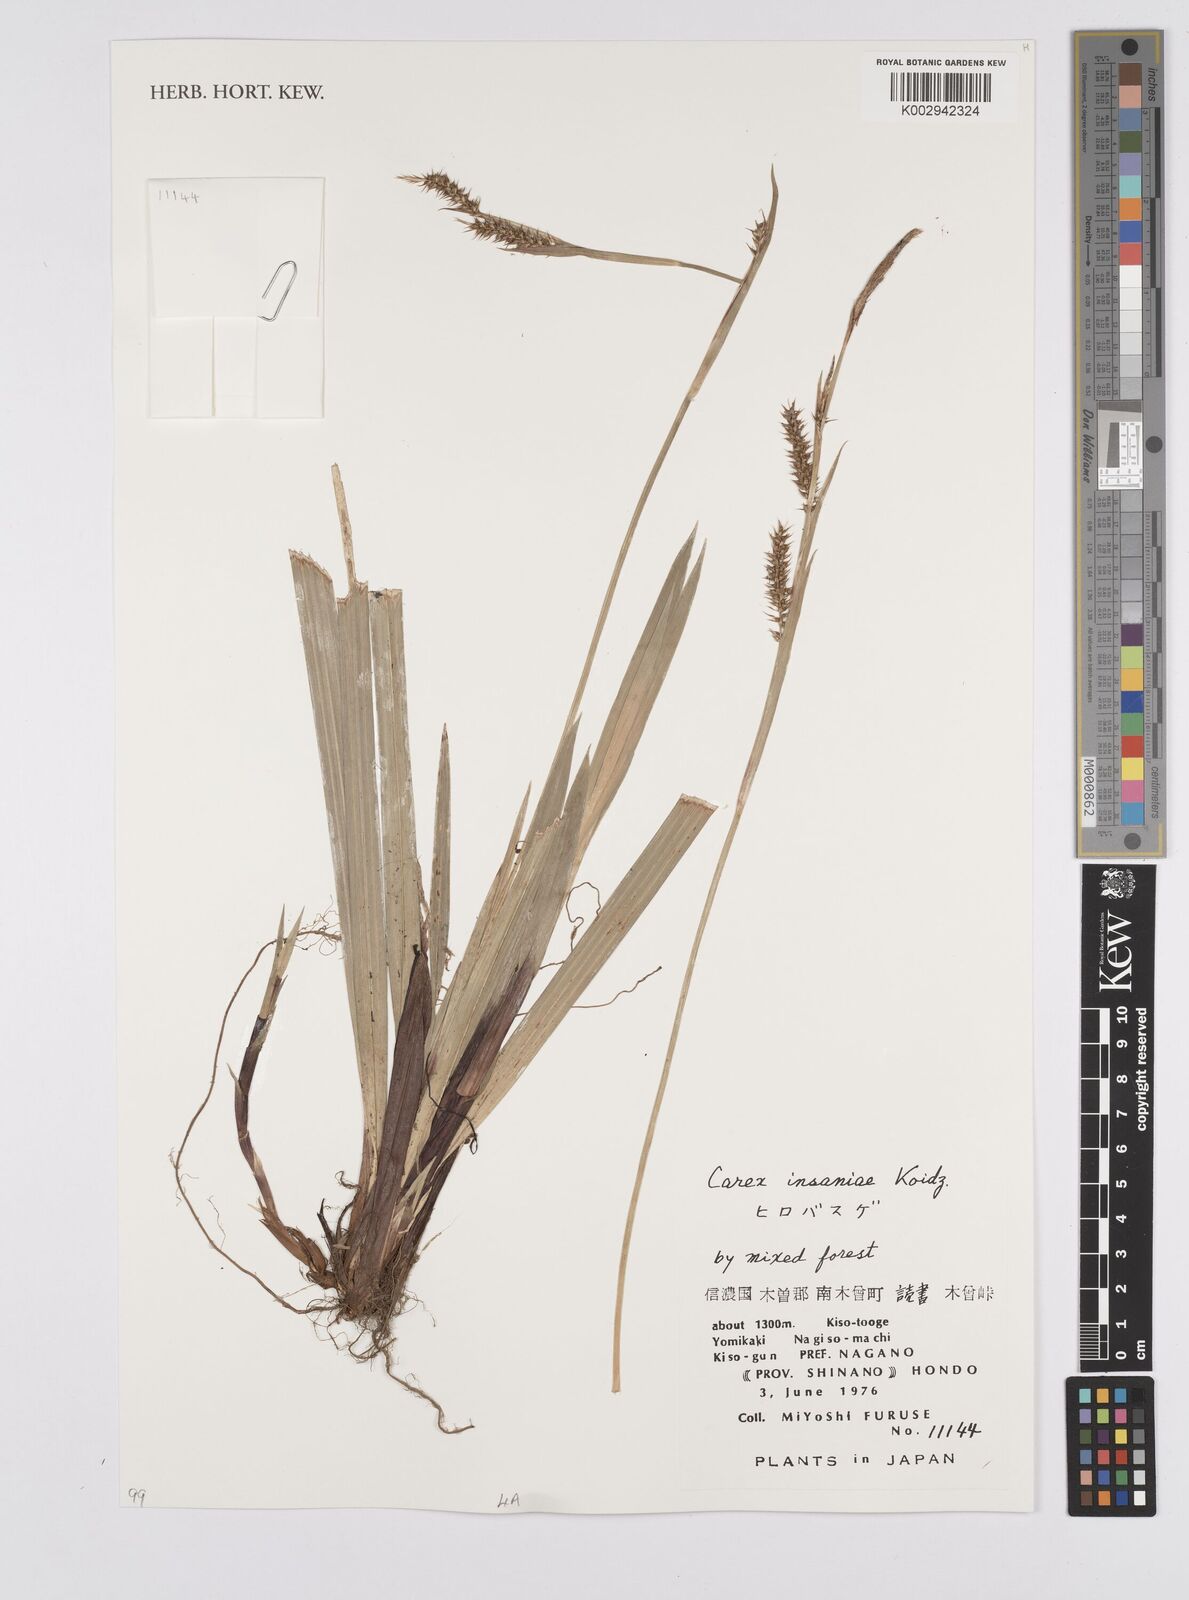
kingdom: Plantae
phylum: Tracheophyta
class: Liliopsida
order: Poales
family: Cyperaceae
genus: Carex
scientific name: Carex insaniae
